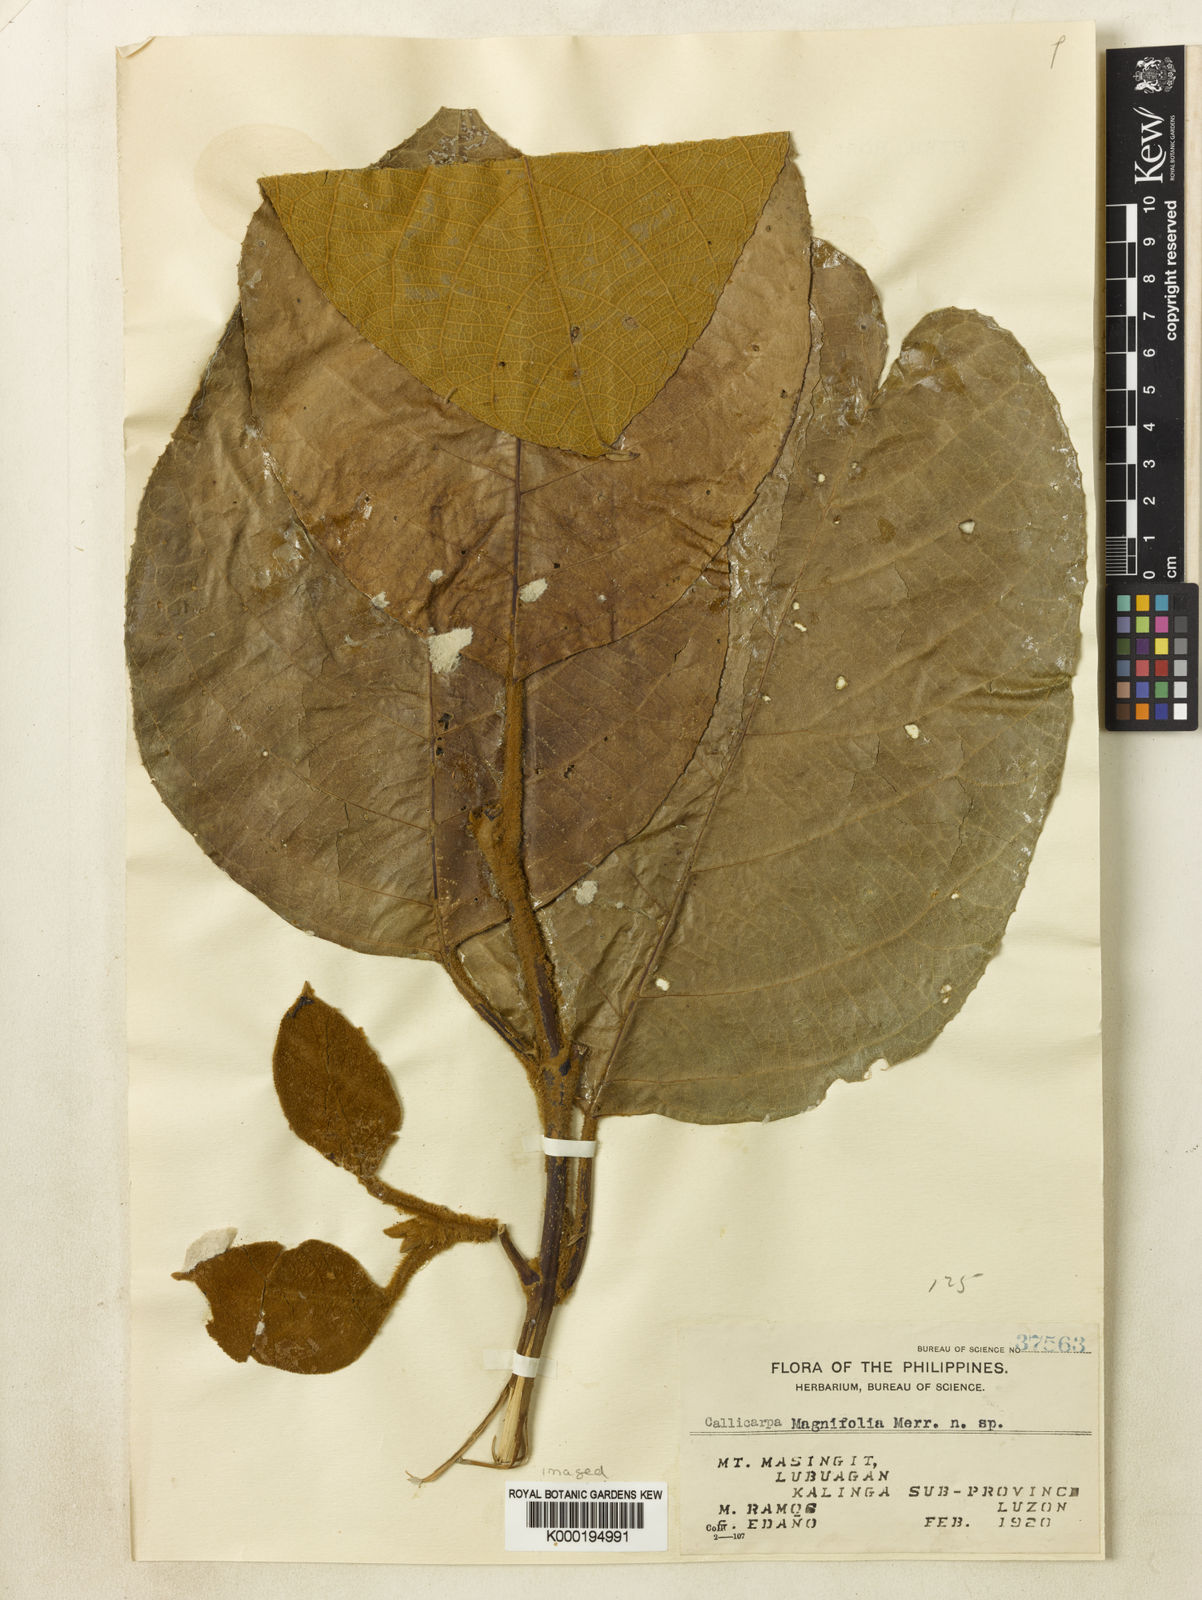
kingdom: Plantae
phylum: Tracheophyta
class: Magnoliopsida
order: Lamiales
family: Lamiaceae
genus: Callicarpa
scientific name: Callicarpa magnifolia
